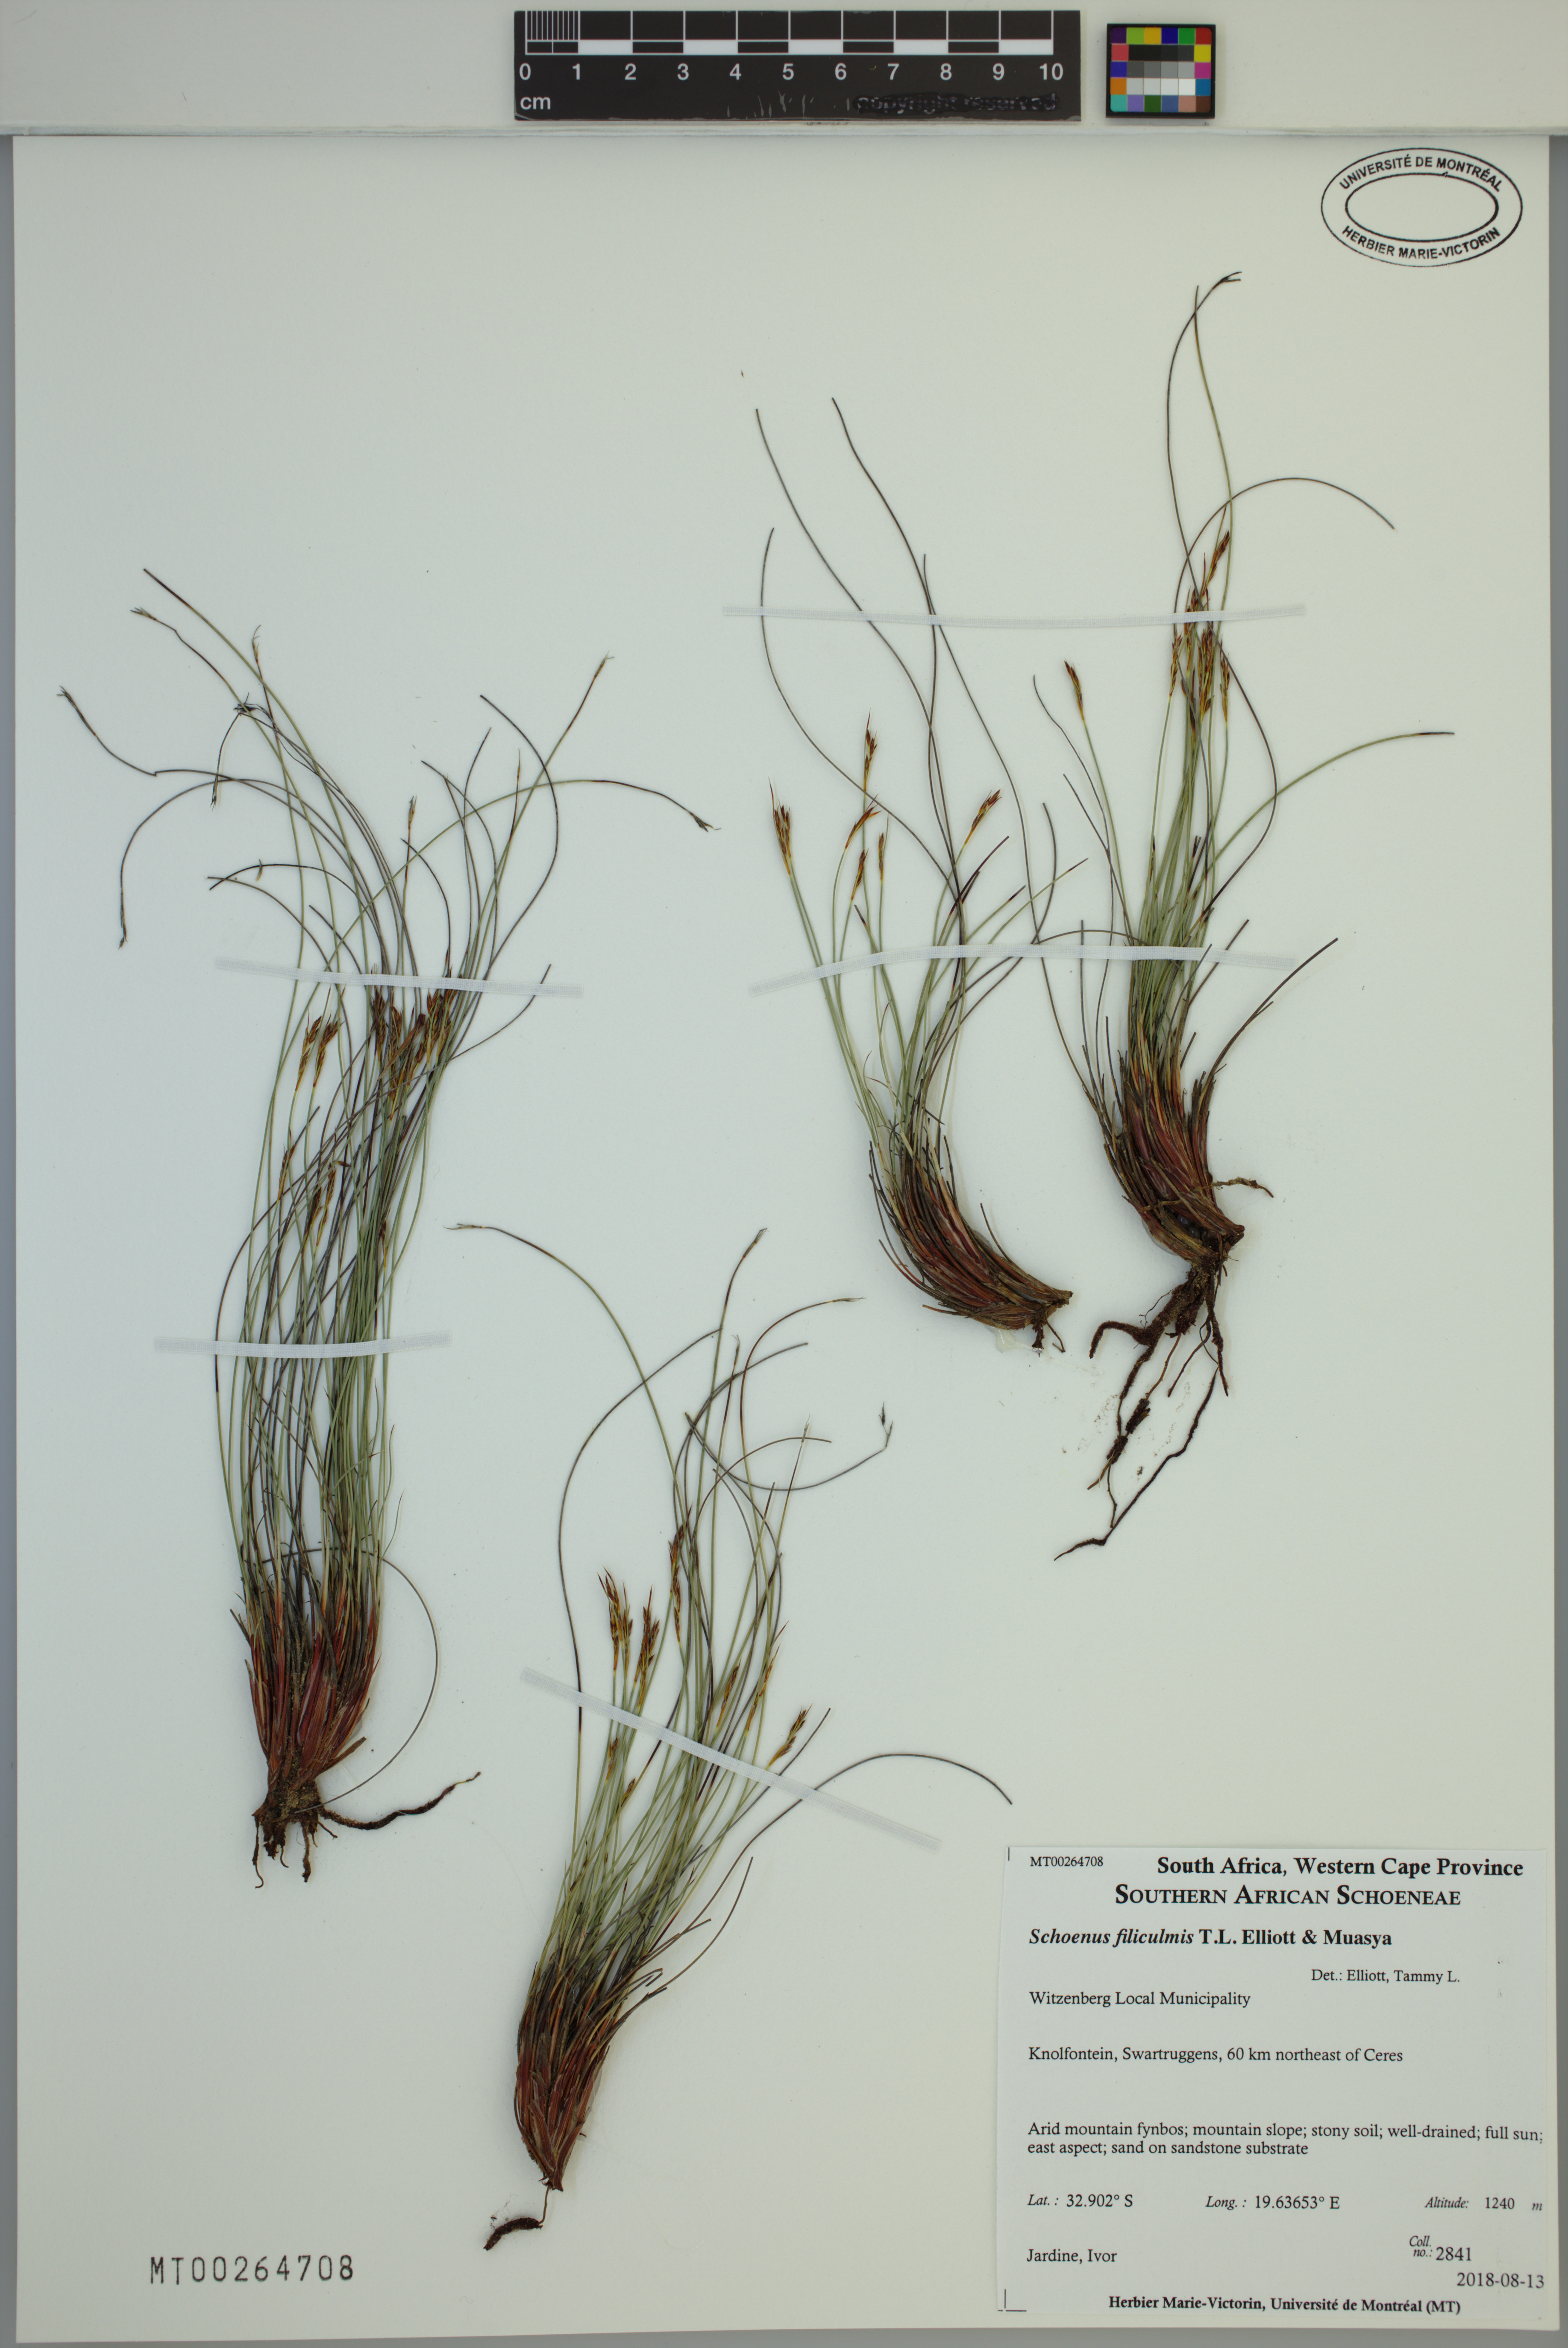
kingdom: Plantae
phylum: Tracheophyta
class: Liliopsida
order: Poales
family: Cyperaceae
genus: Schoenus
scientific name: Schoenus filiculmis
